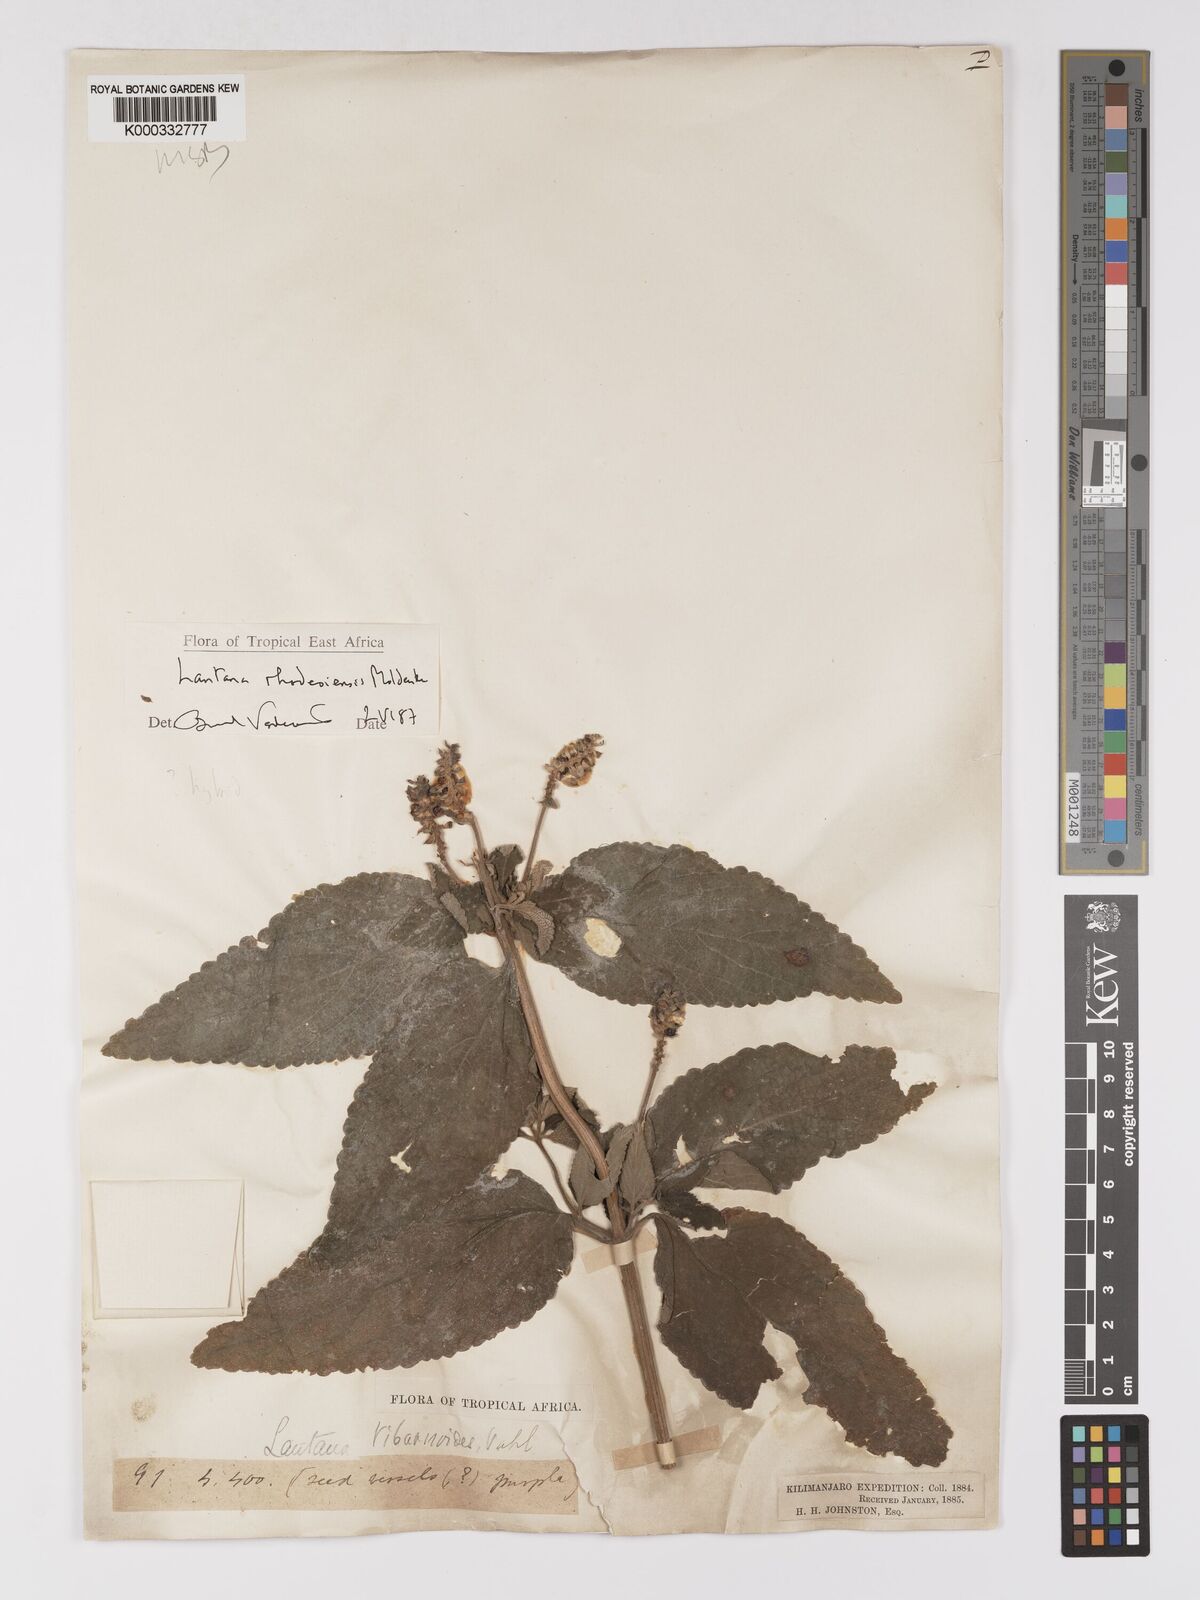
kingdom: Plantae
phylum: Tracheophyta
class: Magnoliopsida
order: Lamiales
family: Verbenaceae
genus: Lantana
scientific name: Lantana ukambensis
